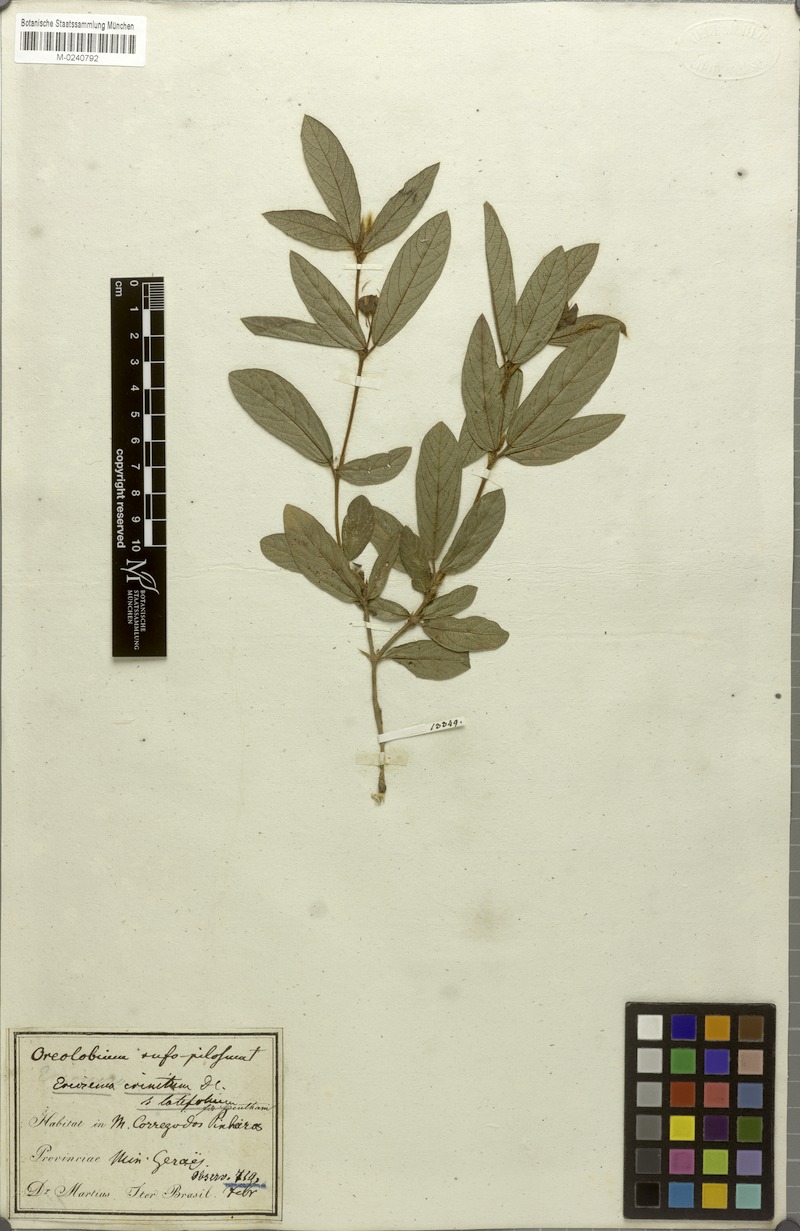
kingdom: Plantae
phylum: Tracheophyta
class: Magnoliopsida
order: Fabales
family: Fabaceae
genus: Eriosema
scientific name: Eriosema crinitum
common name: Sand pea
